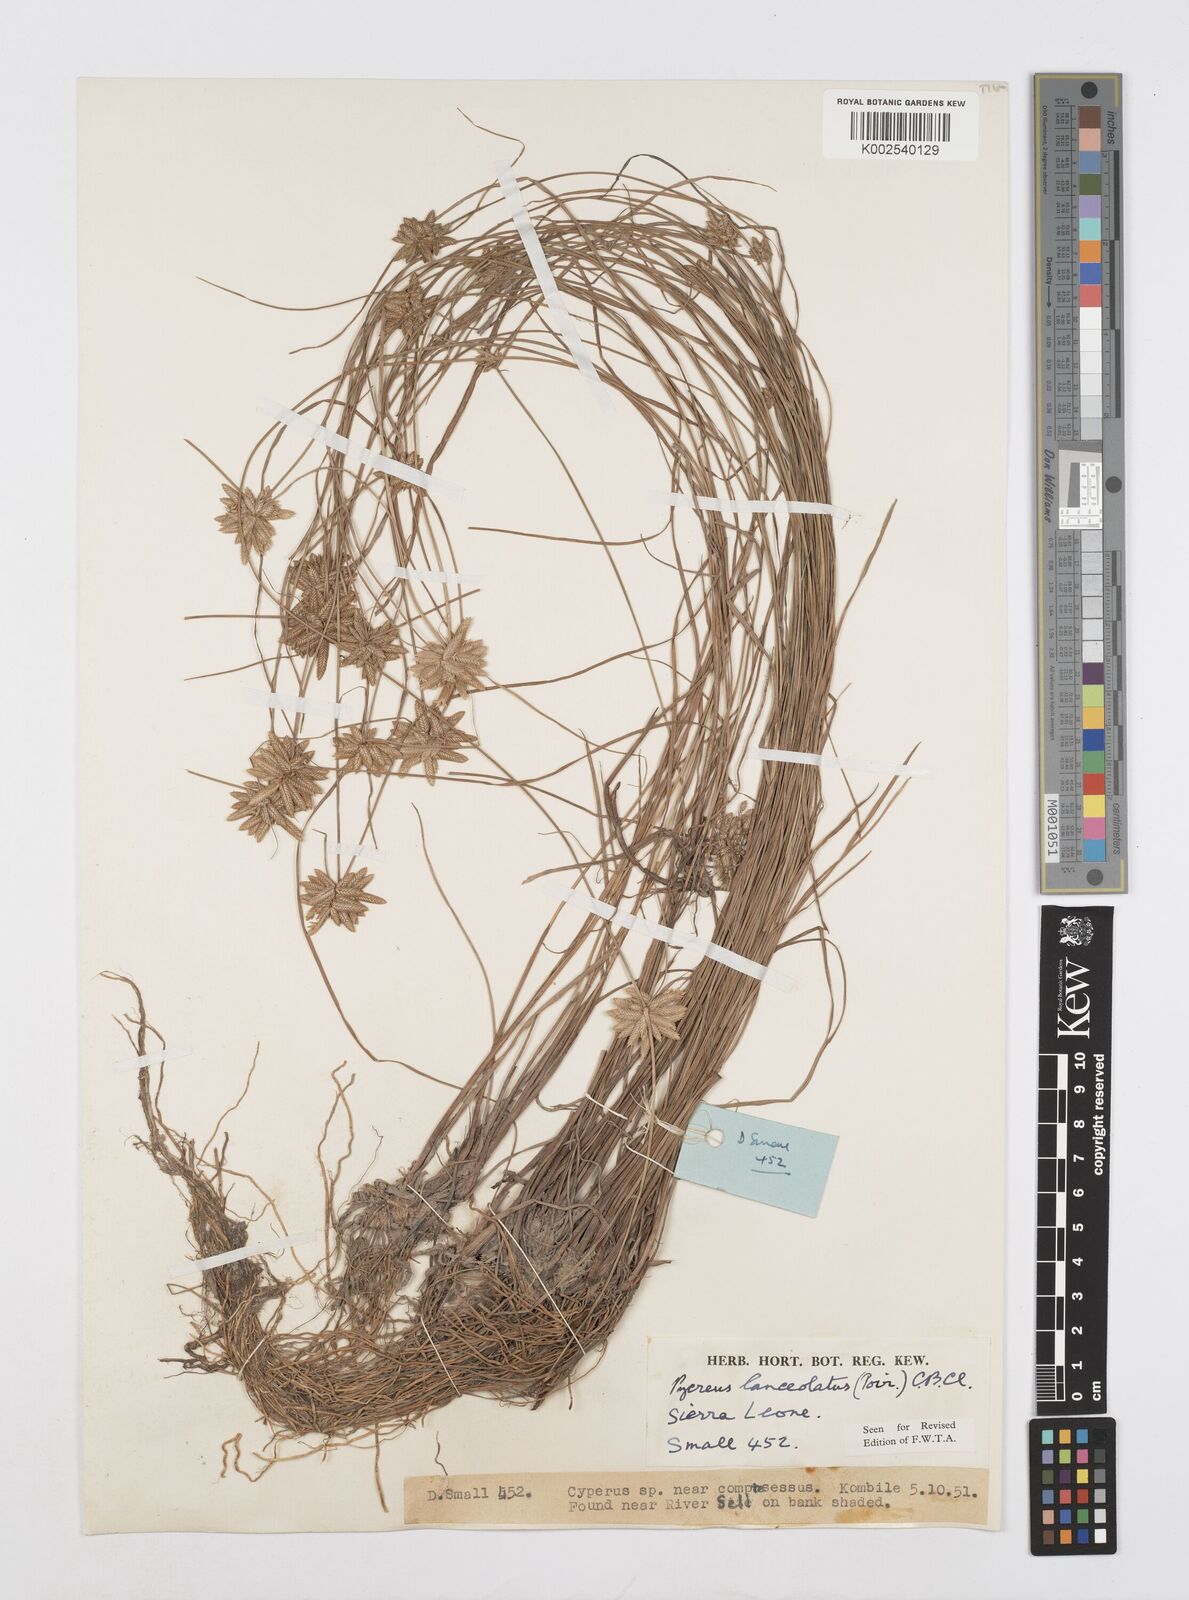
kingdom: Plantae
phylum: Tracheophyta
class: Liliopsida
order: Poales
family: Cyperaceae
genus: Cyperus
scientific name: Cyperus
